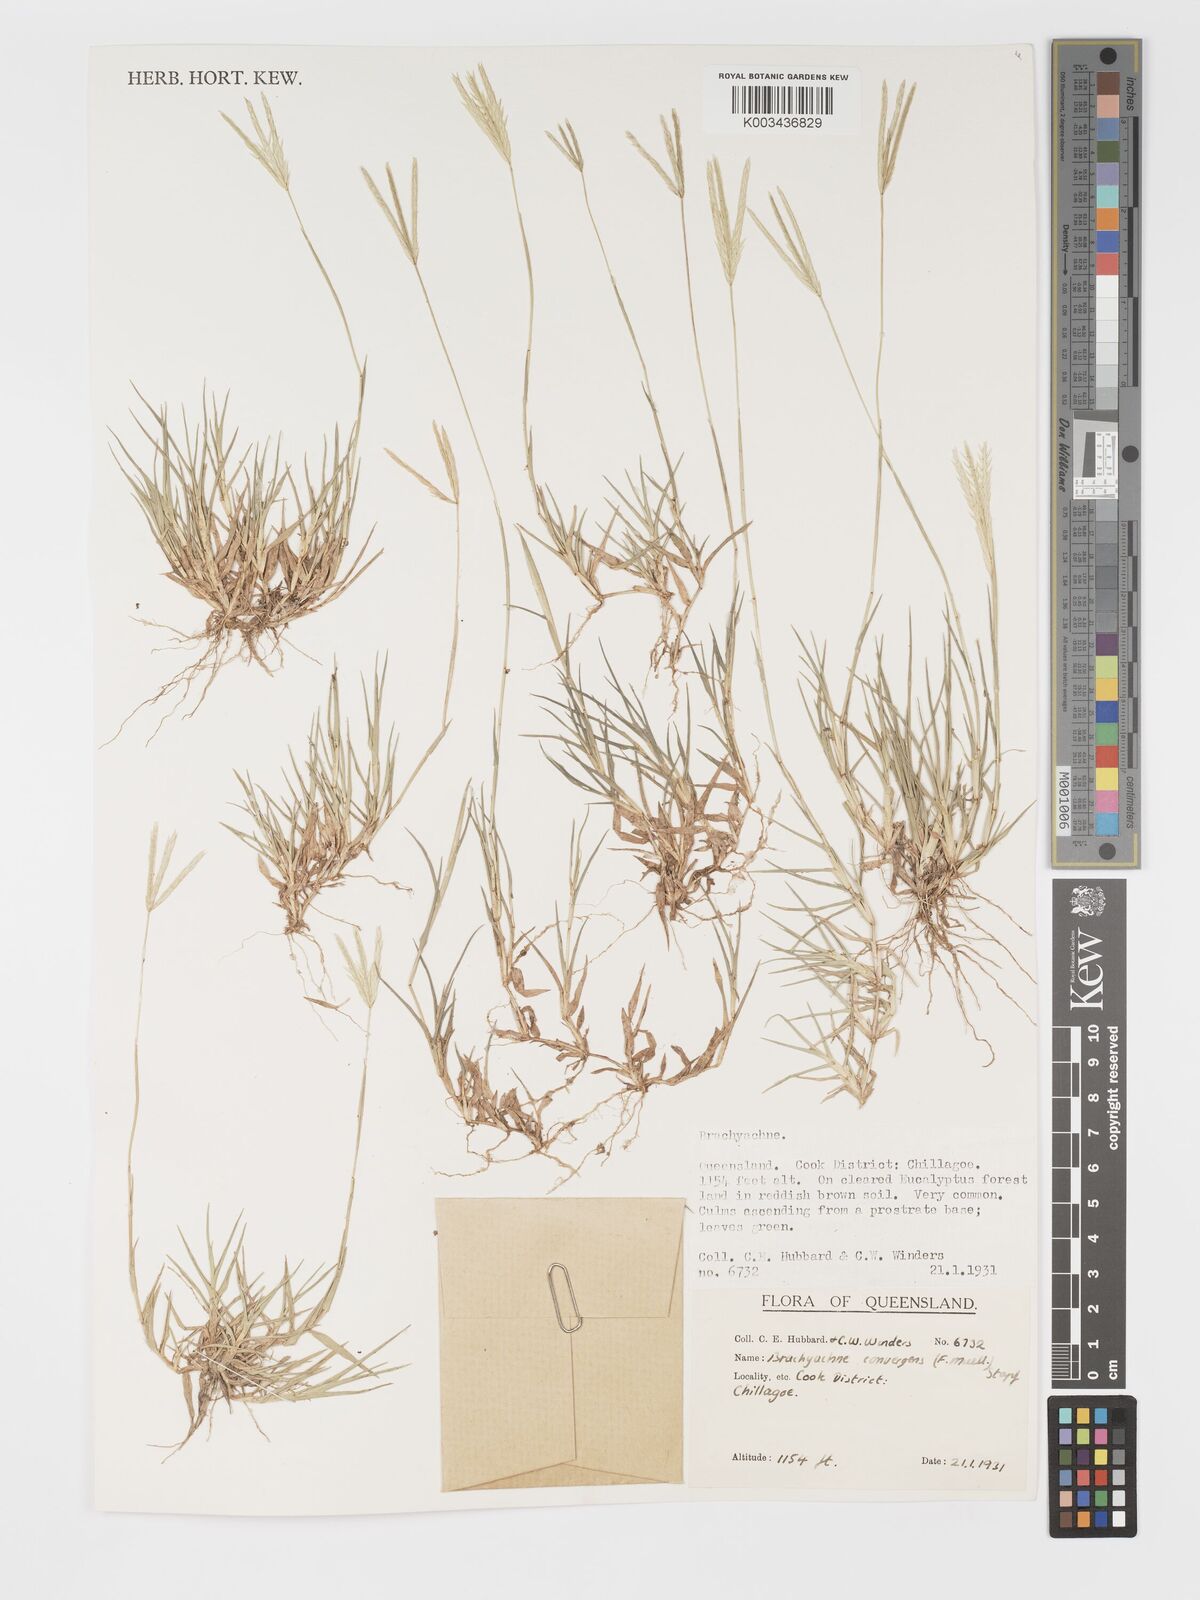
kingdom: Plantae
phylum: Tracheophyta
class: Liliopsida
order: Poales
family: Poaceae
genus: Cynodon
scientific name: Cynodon convergens
